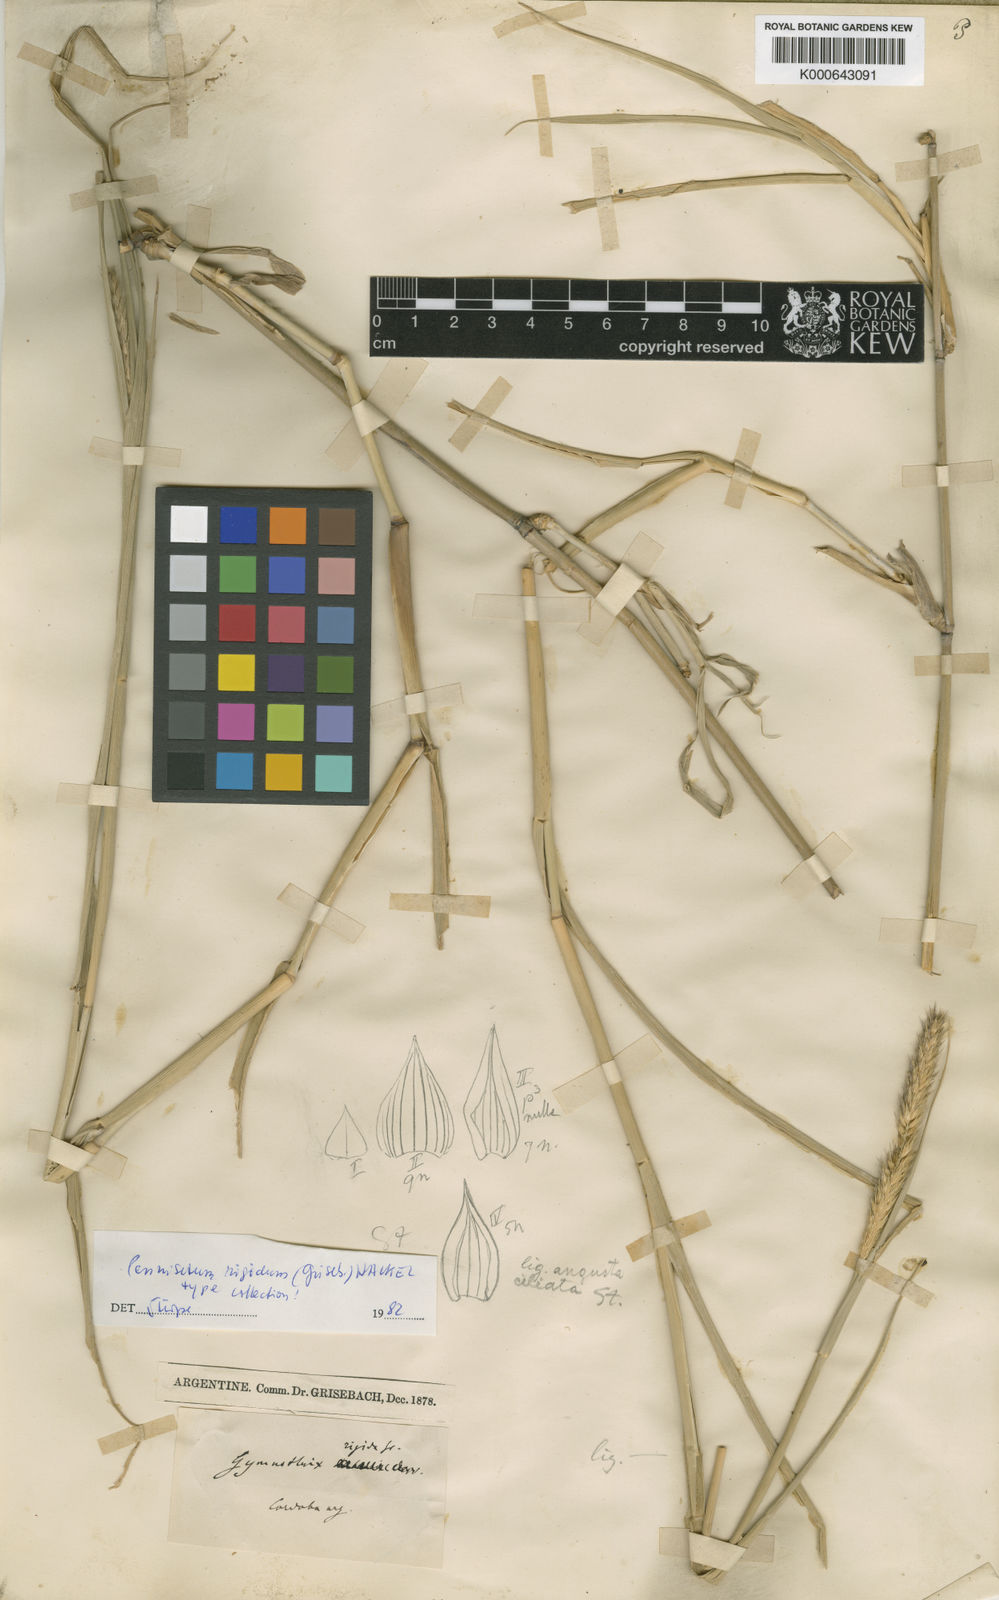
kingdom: Plantae
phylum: Tracheophyta
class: Liliopsida
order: Poales
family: Poaceae
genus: Cenchrus
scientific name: Cenchrus rigidus
